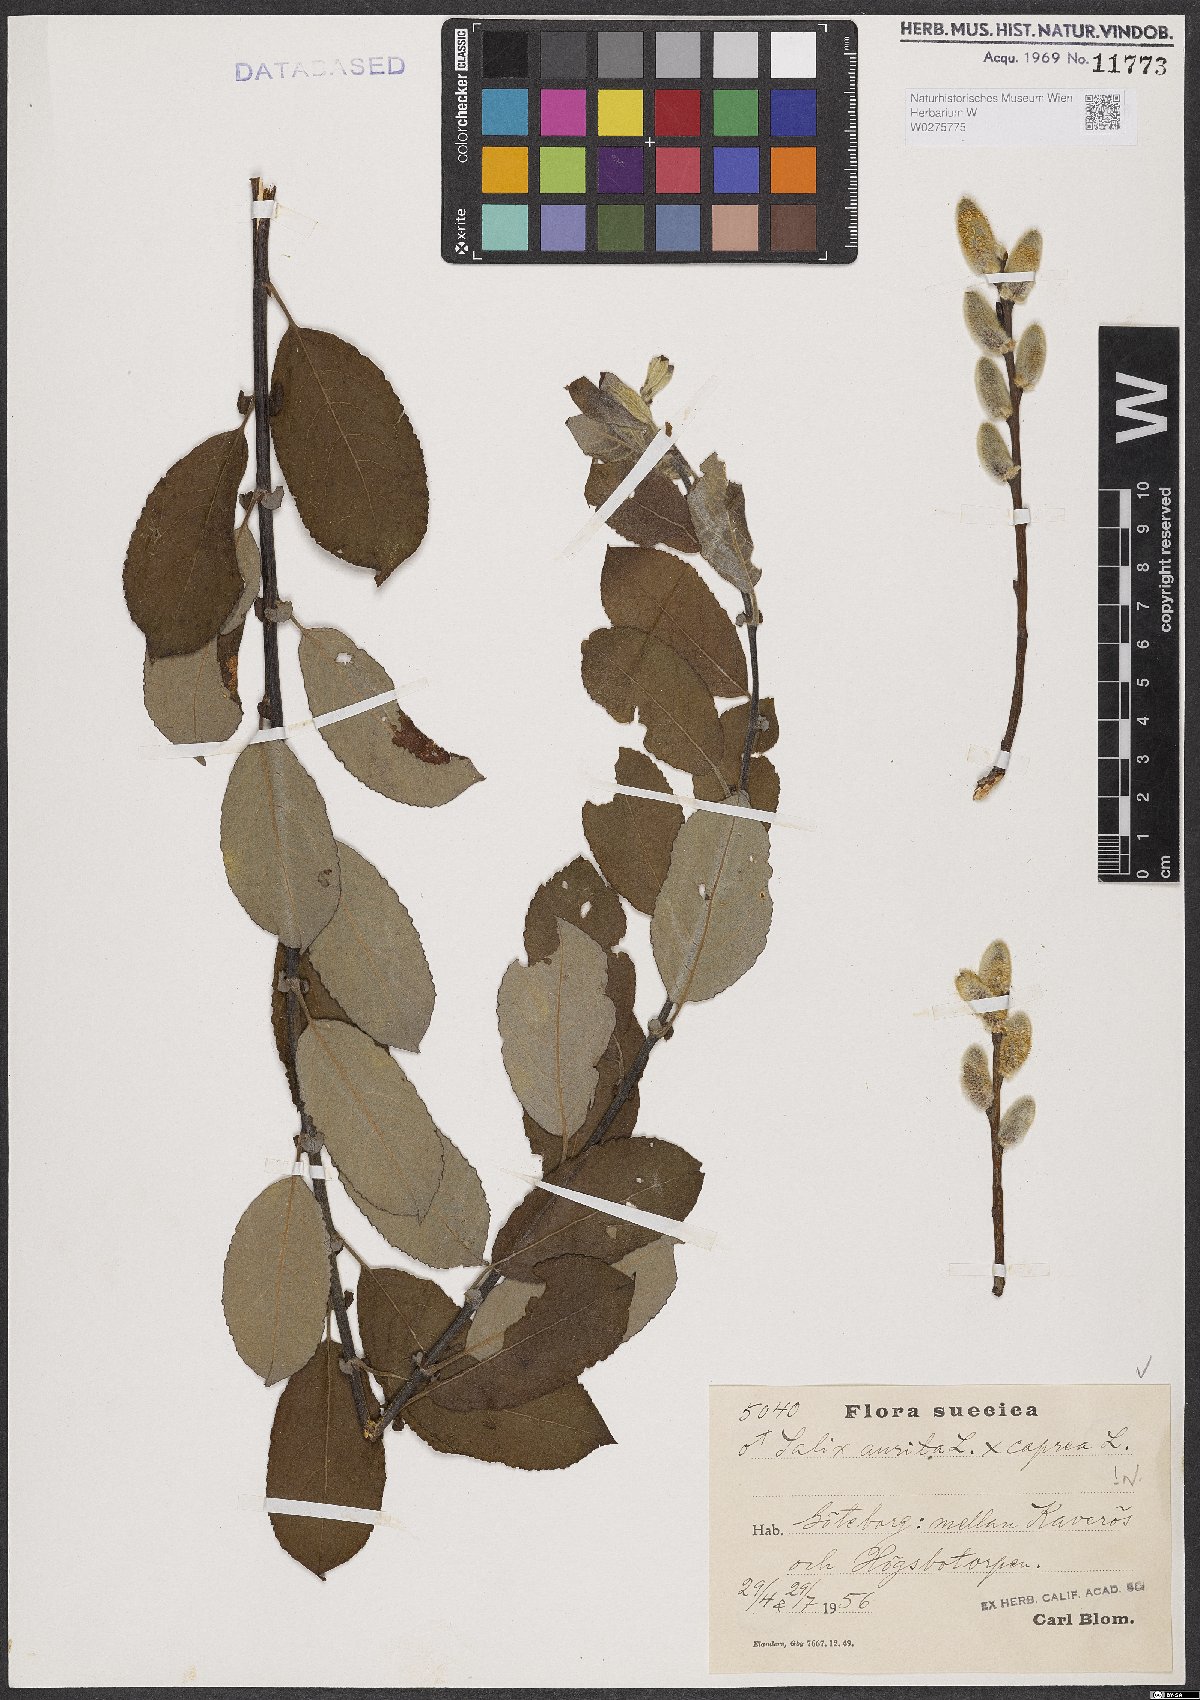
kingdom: Plantae
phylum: Tracheophyta
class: Magnoliopsida
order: Malpighiales
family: Salicaceae
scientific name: Salicaceae
